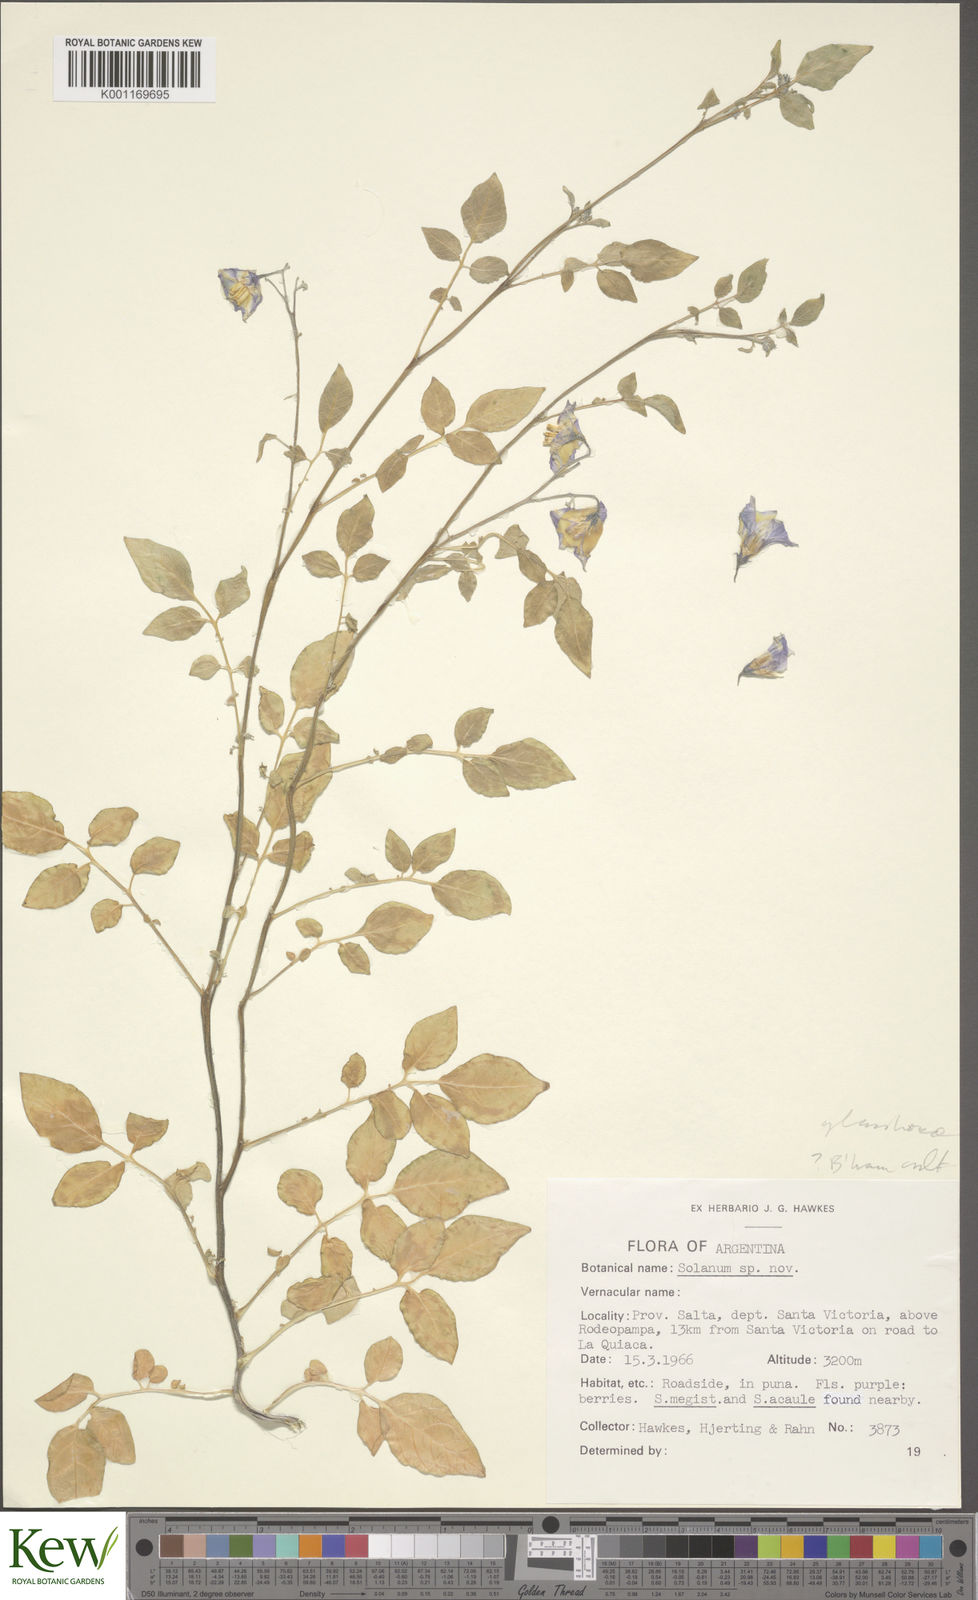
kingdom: Plantae
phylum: Tracheophyta
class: Magnoliopsida
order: Solanales
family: Solanaceae
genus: Solanum
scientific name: Solanum neorossii
